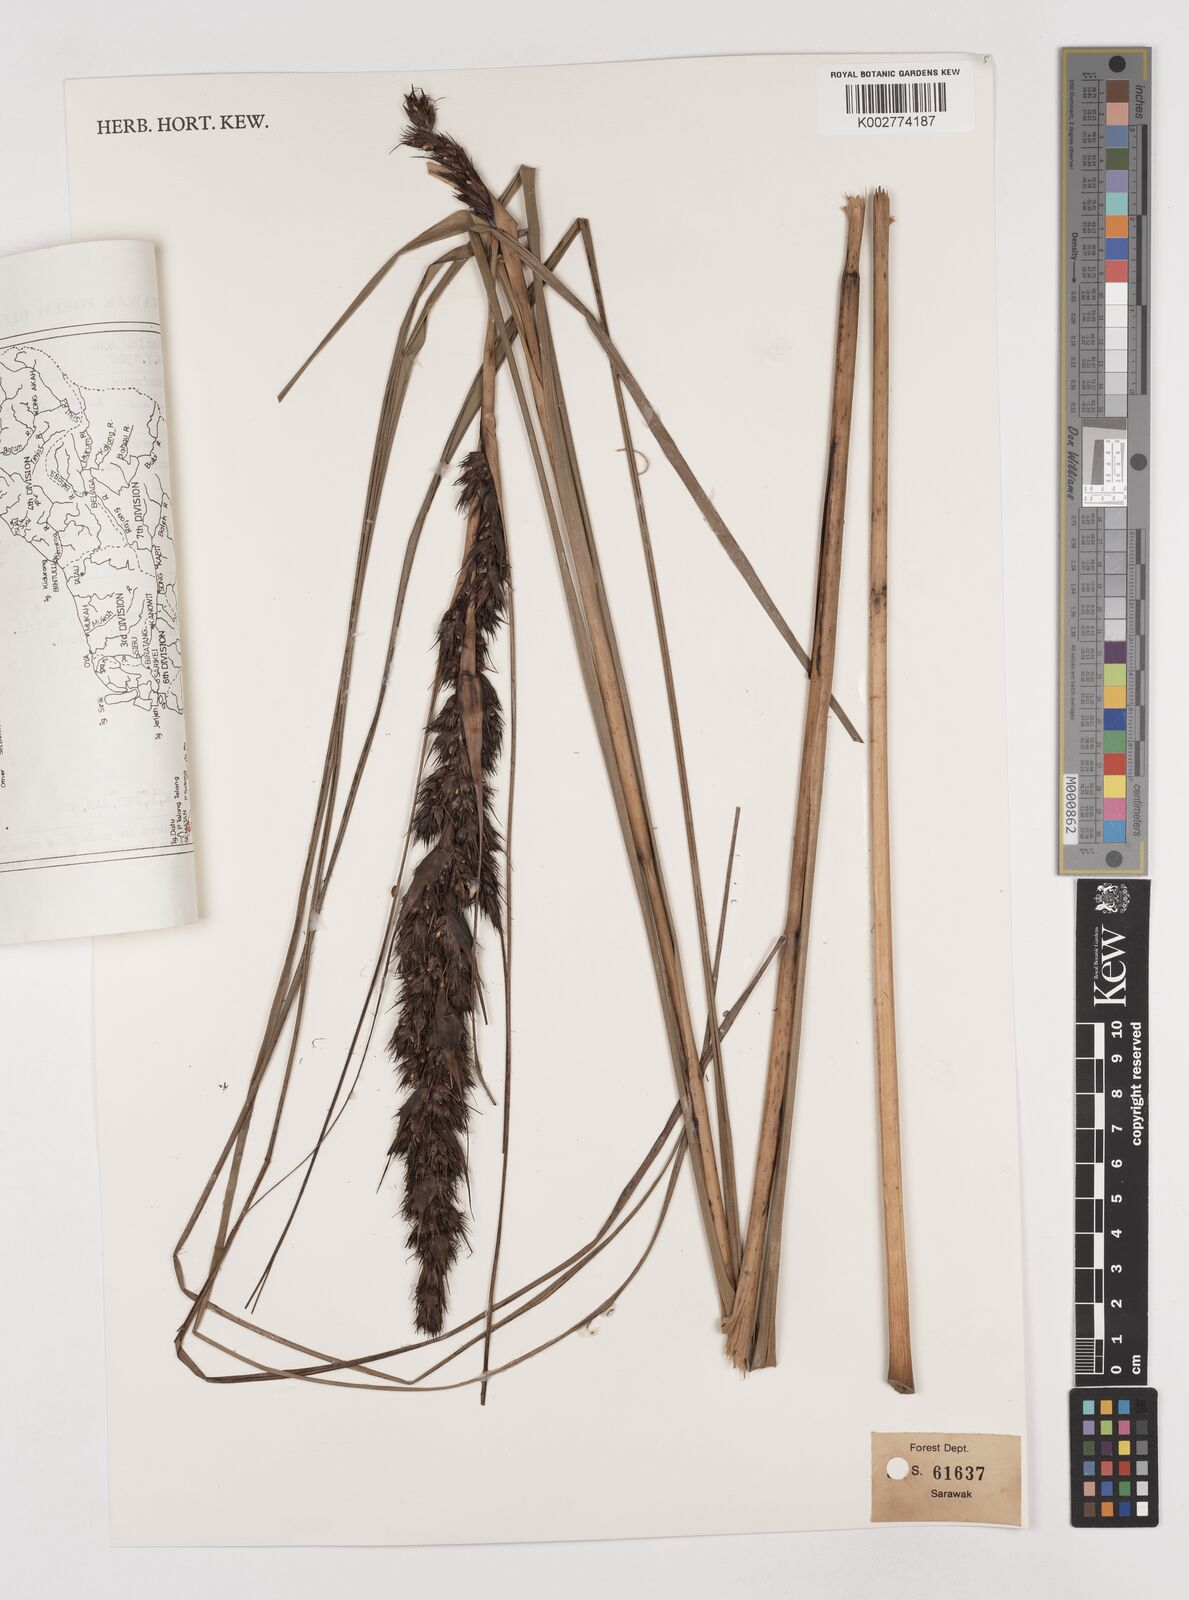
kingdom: Plantae
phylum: Tracheophyta
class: Liliopsida
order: Poales
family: Cyperaceae
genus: Gahnia
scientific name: Gahnia tristis
